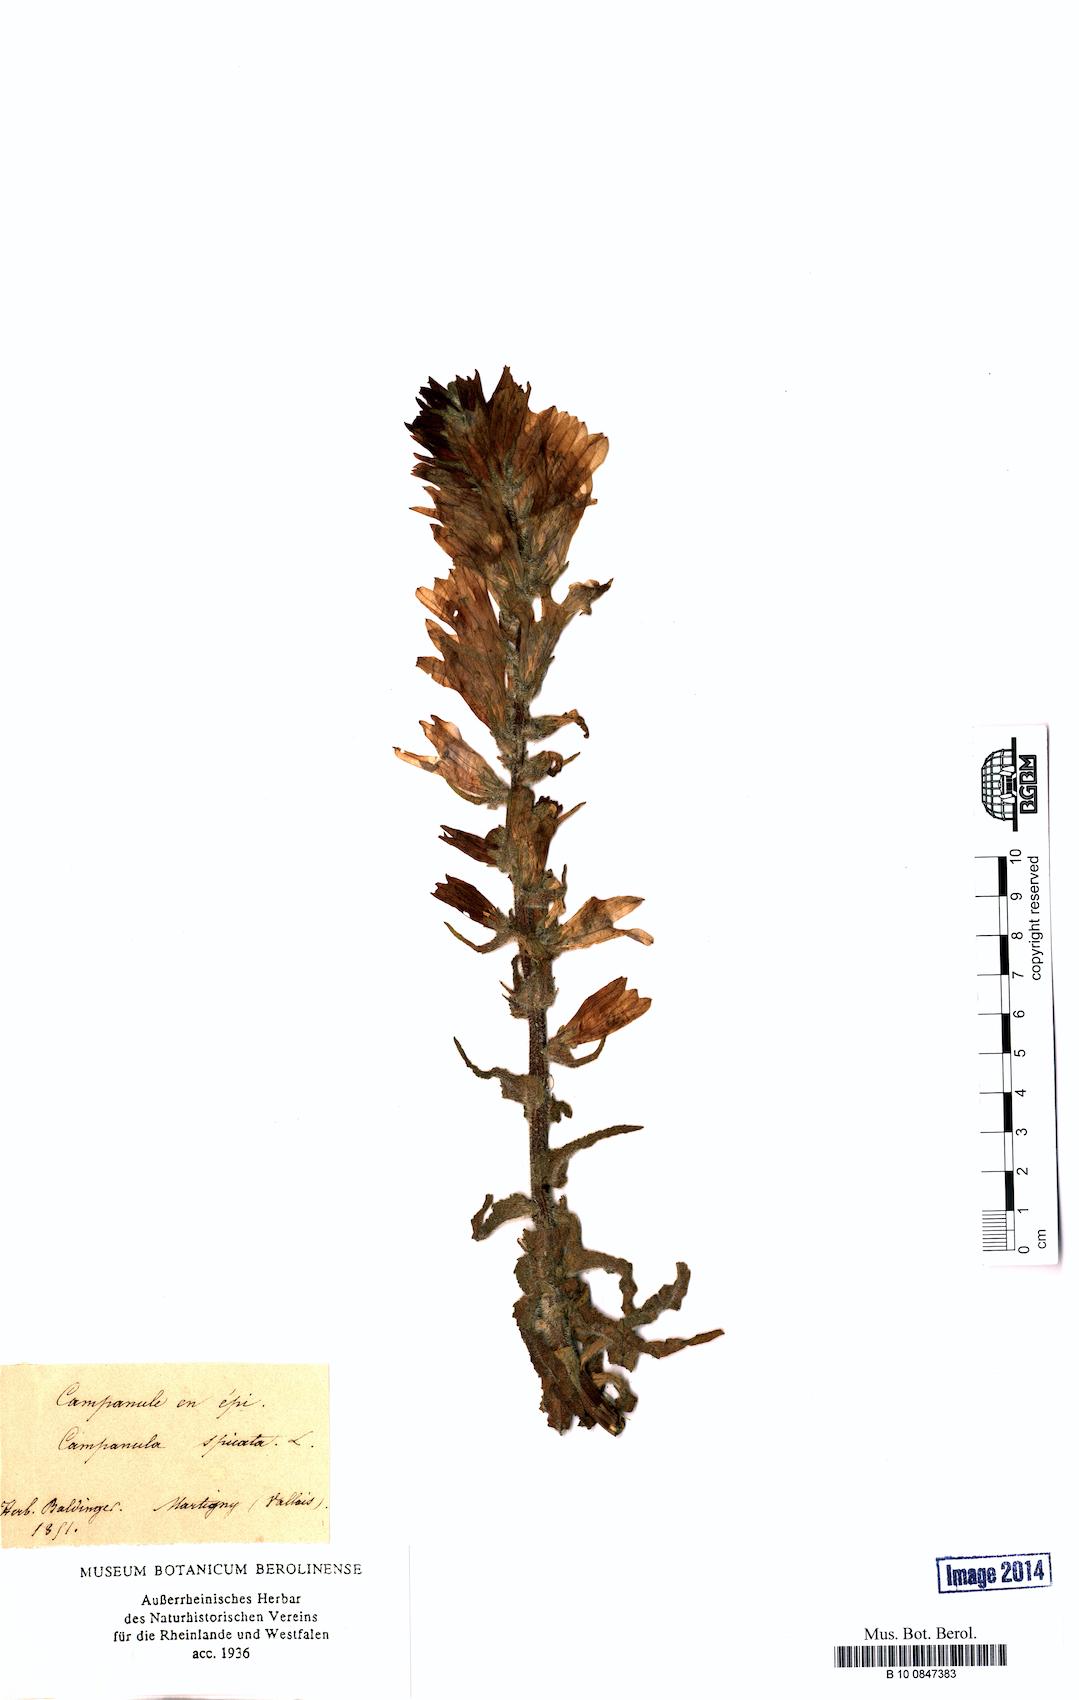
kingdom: Plantae
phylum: Tracheophyta
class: Magnoliopsida
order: Asterales
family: Campanulaceae
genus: Campanula
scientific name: Campanula spicata
